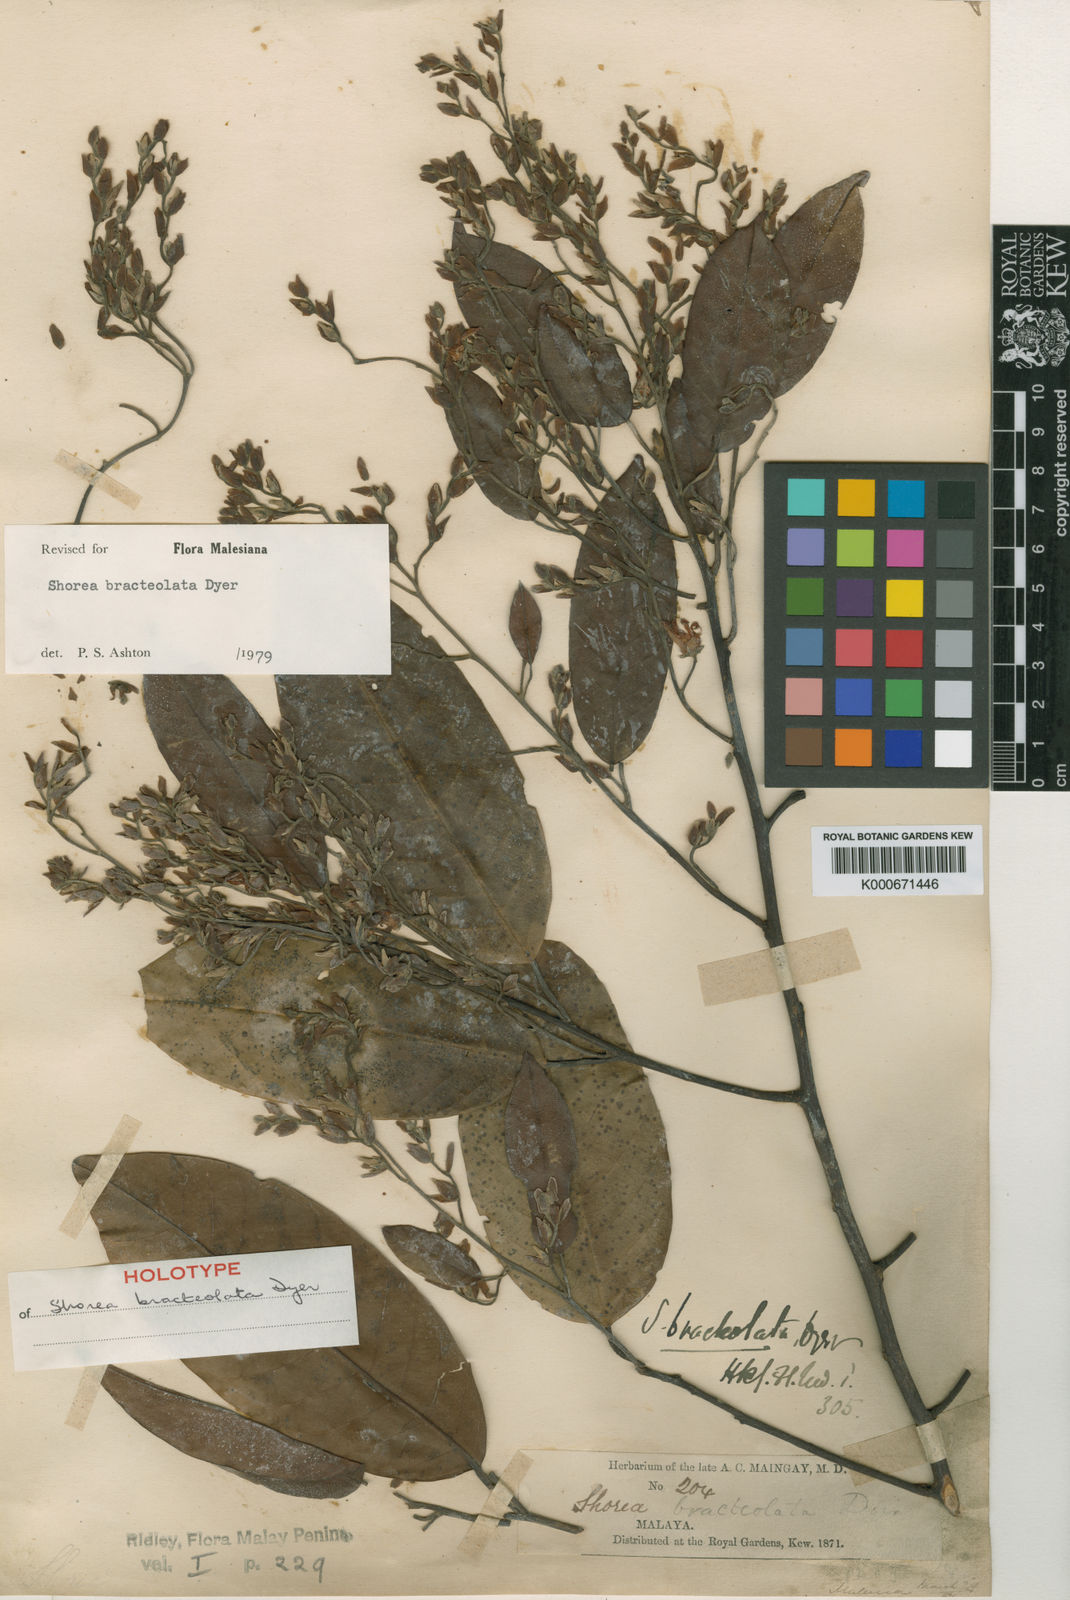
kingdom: Plantae
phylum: Tracheophyta
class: Magnoliopsida
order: Malvales
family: Dipterocarpaceae
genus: Anthoshorea
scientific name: Anthoshorea bracteolata
